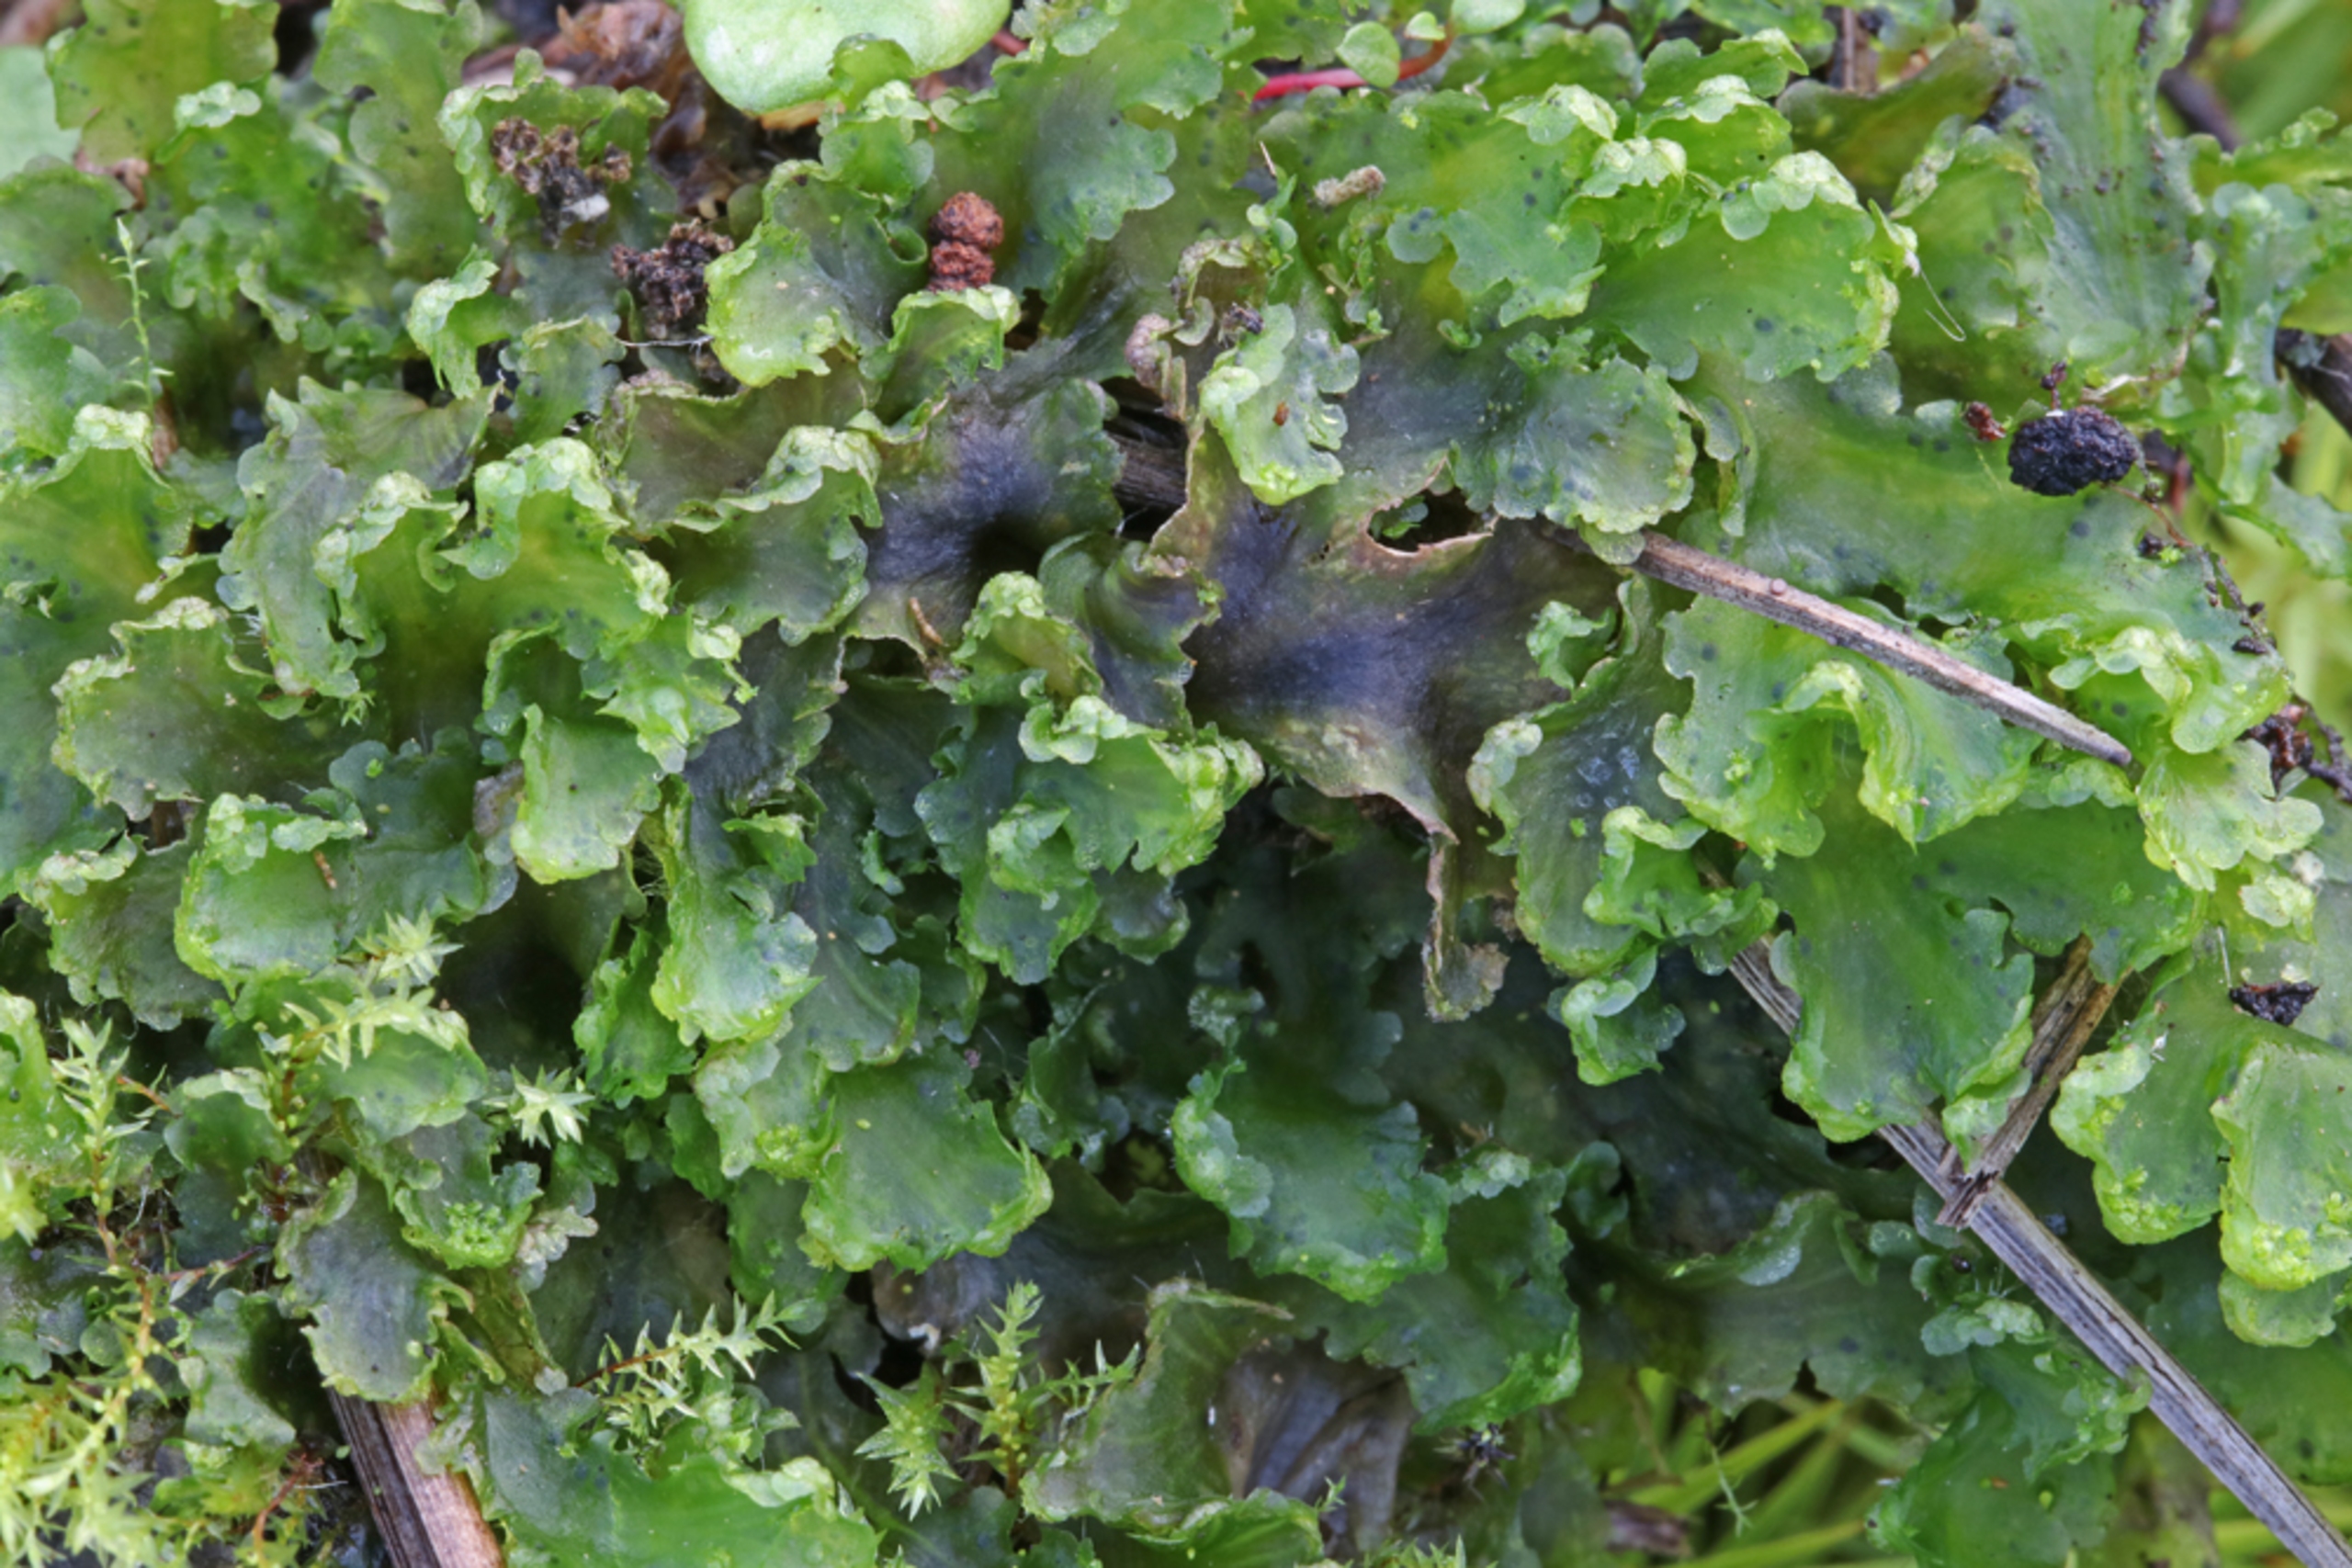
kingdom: Plantae
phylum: Marchantiophyta
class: Marchantiopsida
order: Blasiales
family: Blasiaceae
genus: Blasia
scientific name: Blasia pusilla
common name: Ager-prikløv
